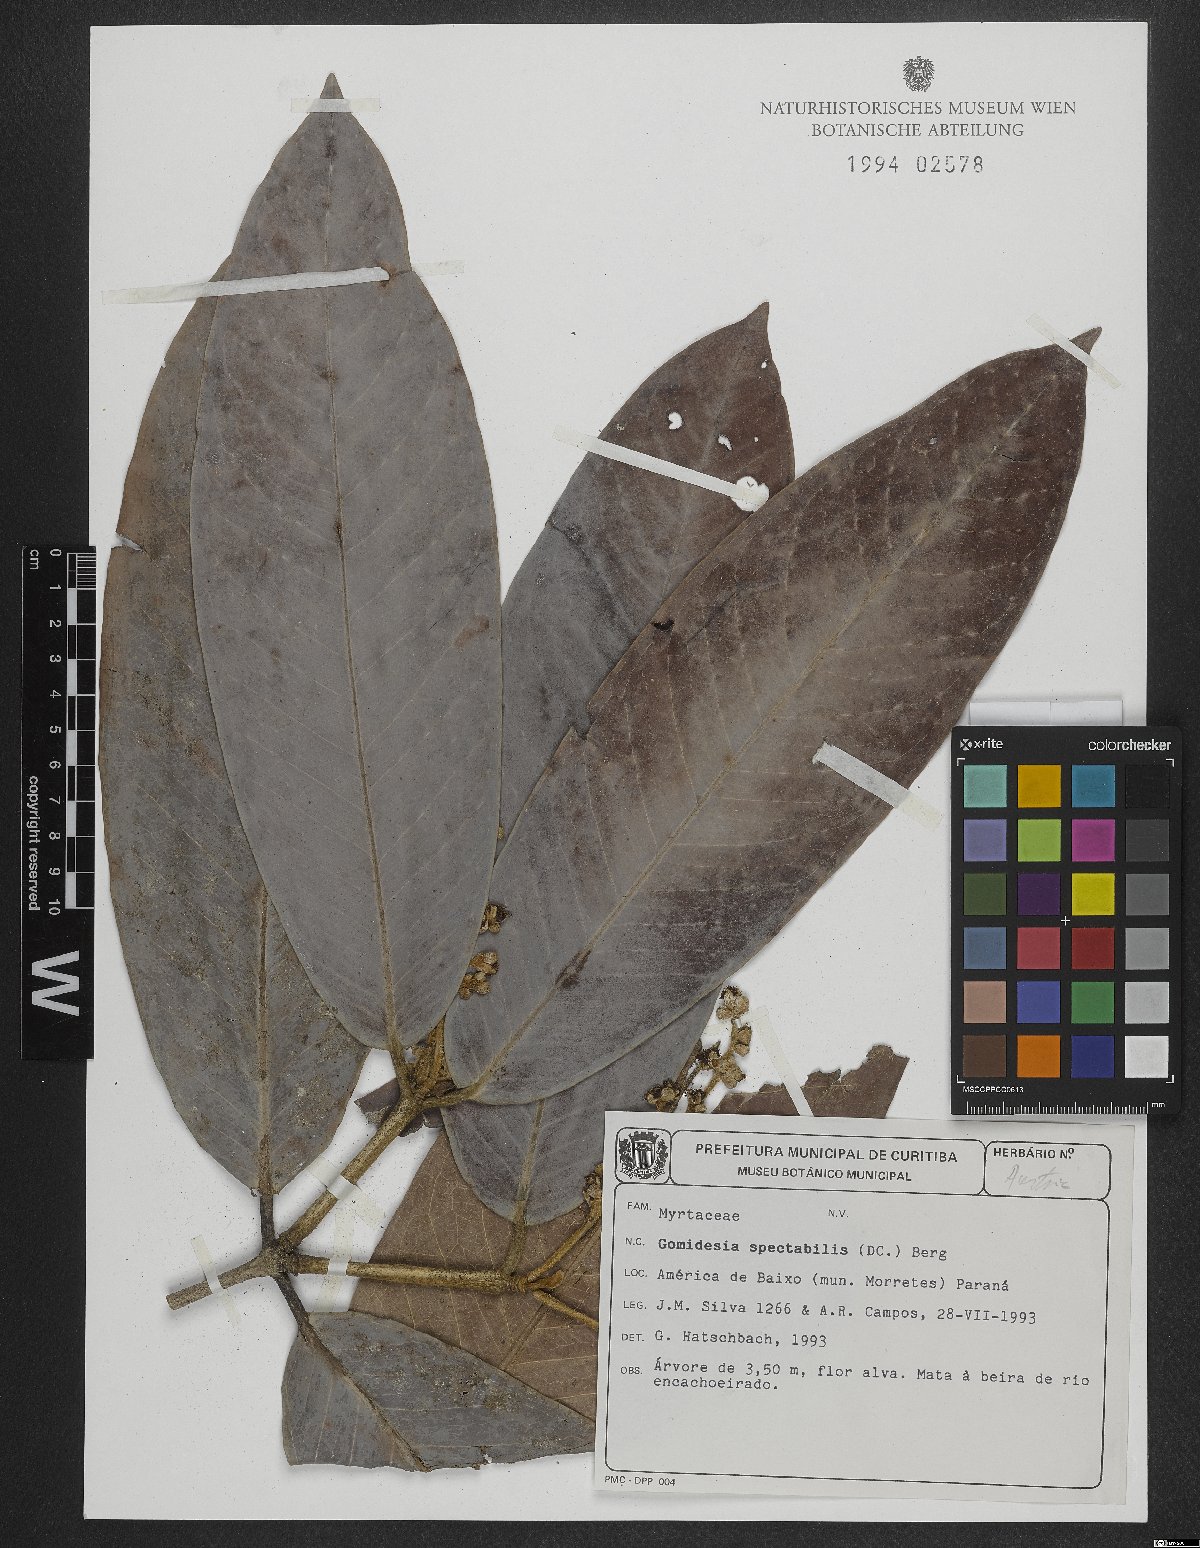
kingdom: Plantae
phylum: Tracheophyta
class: Magnoliopsida
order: Myrtales
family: Myrtaceae
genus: Myrcia
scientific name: Myrcia spectabilis
